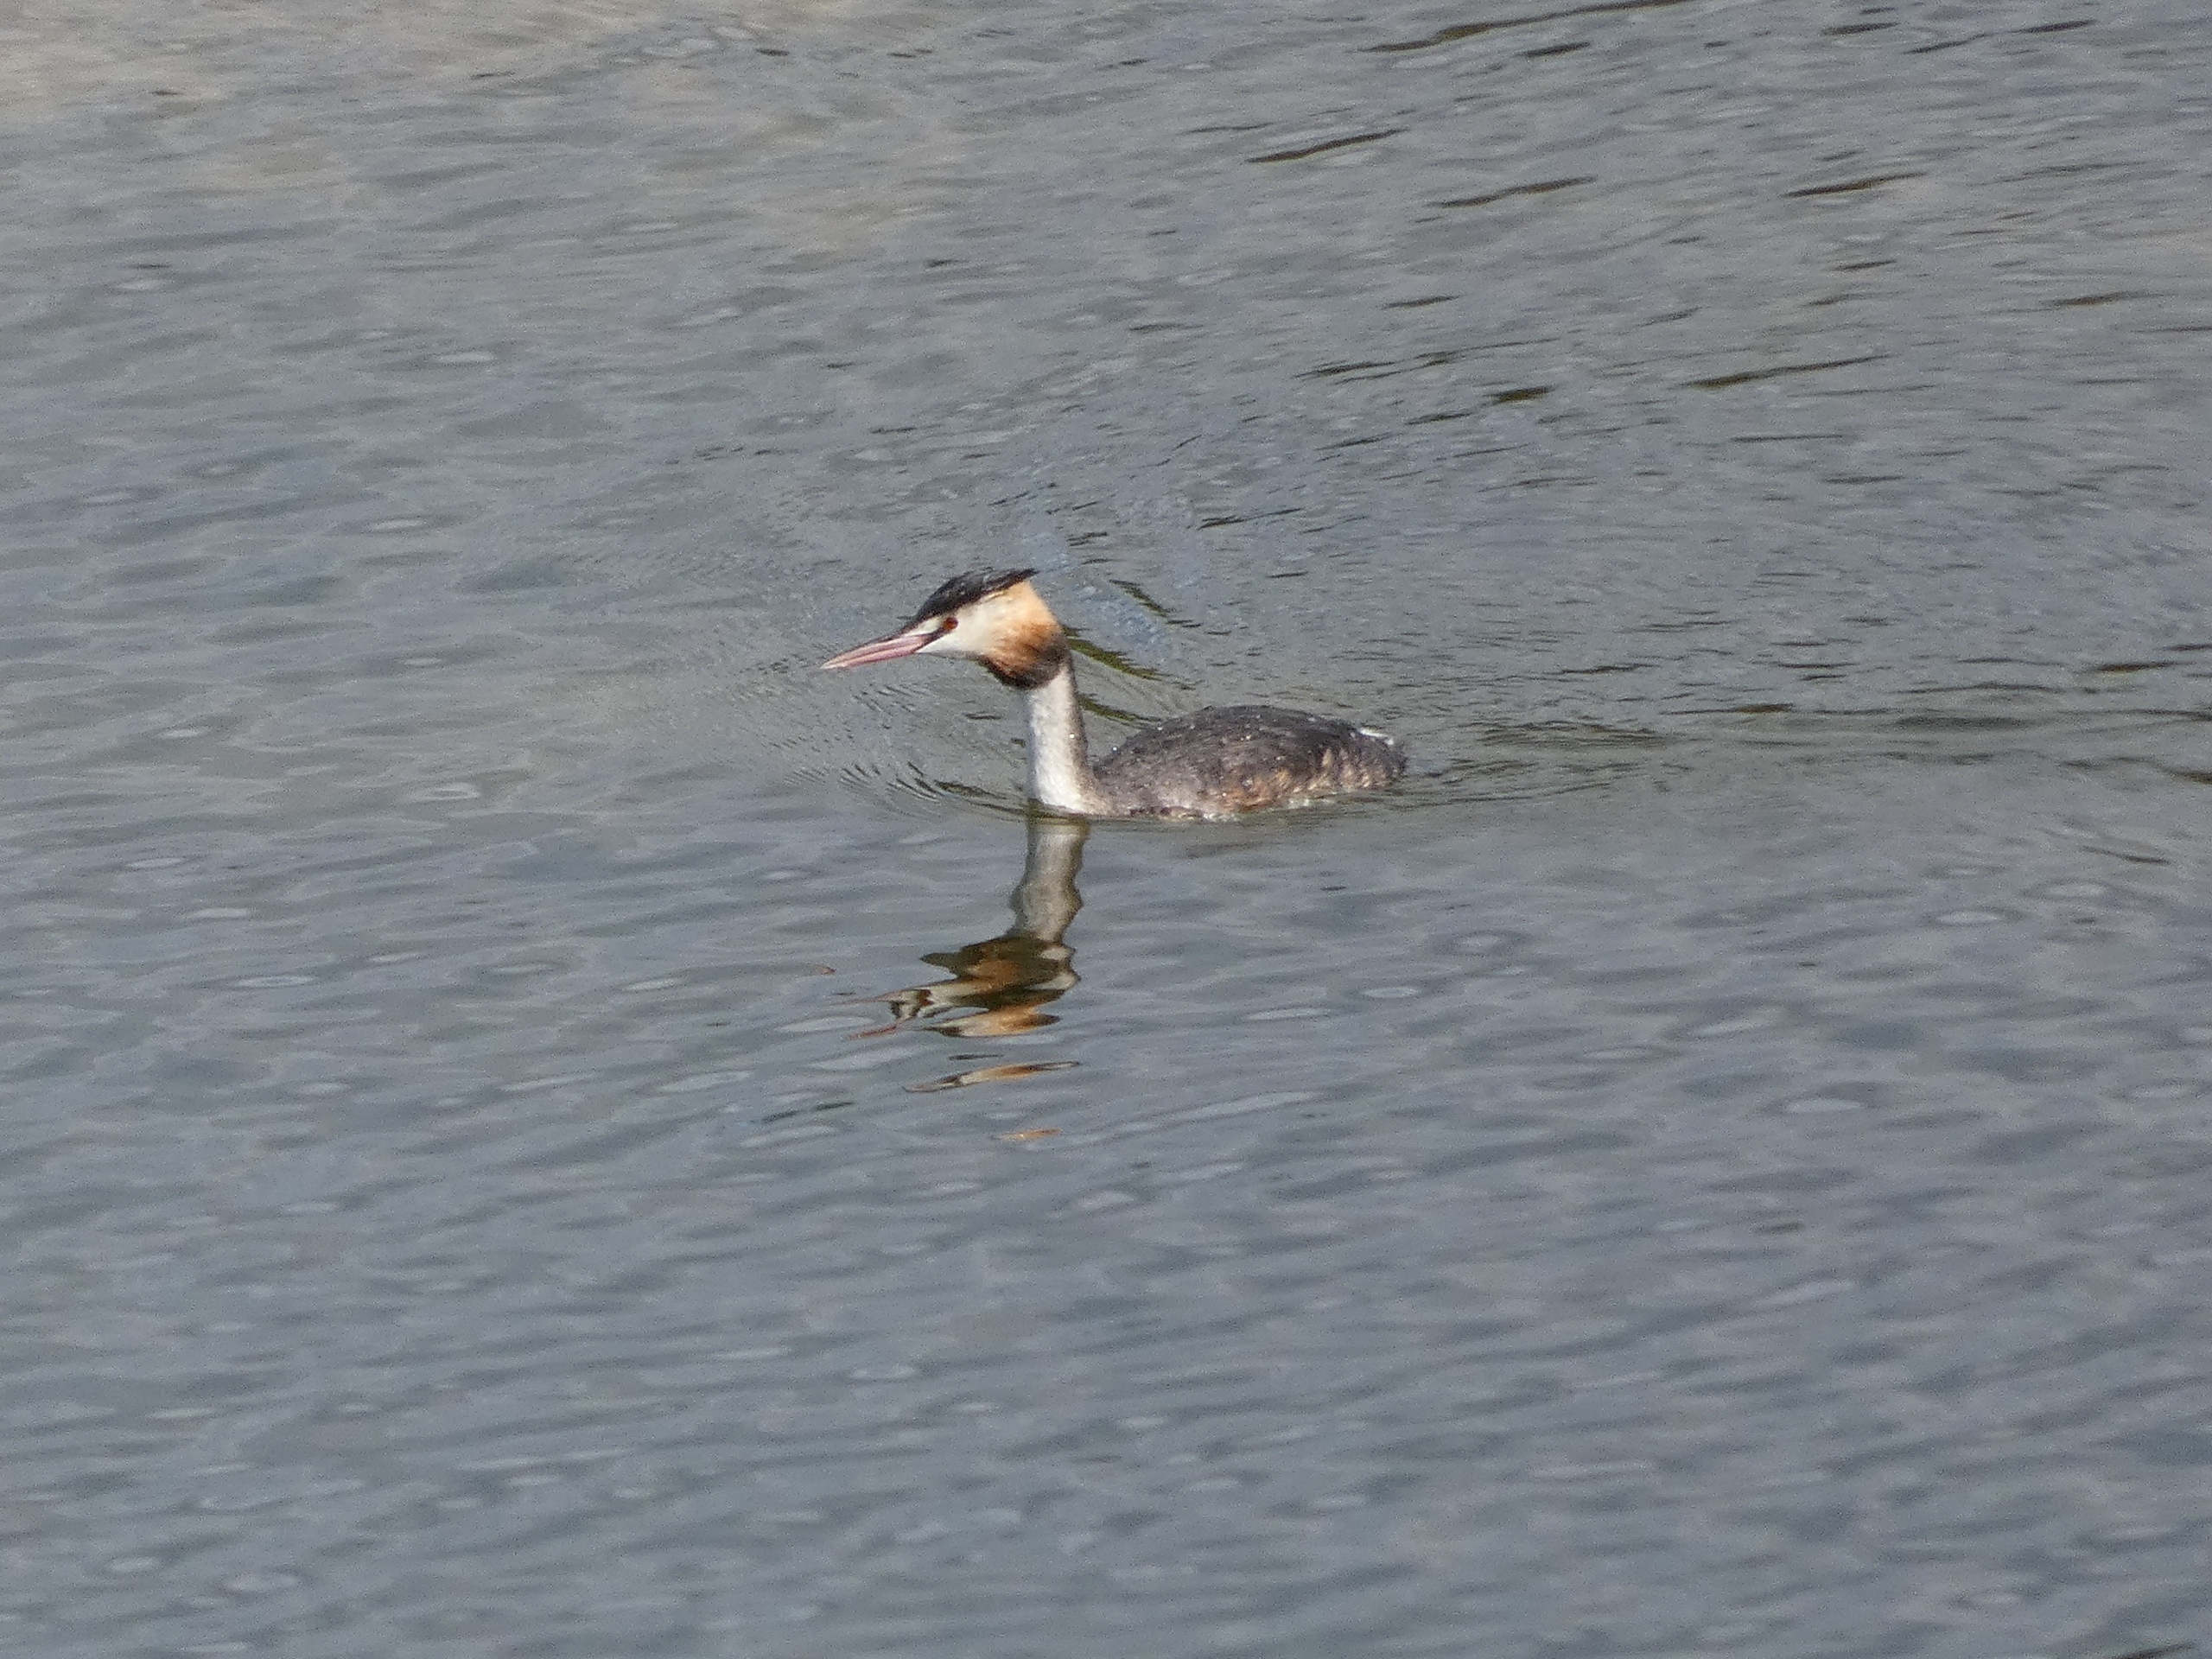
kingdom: Animalia
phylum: Chordata
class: Aves
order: Podicipediformes
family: Podicipedidae
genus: Podiceps
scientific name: Podiceps cristatus
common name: Toppet lappedykker
